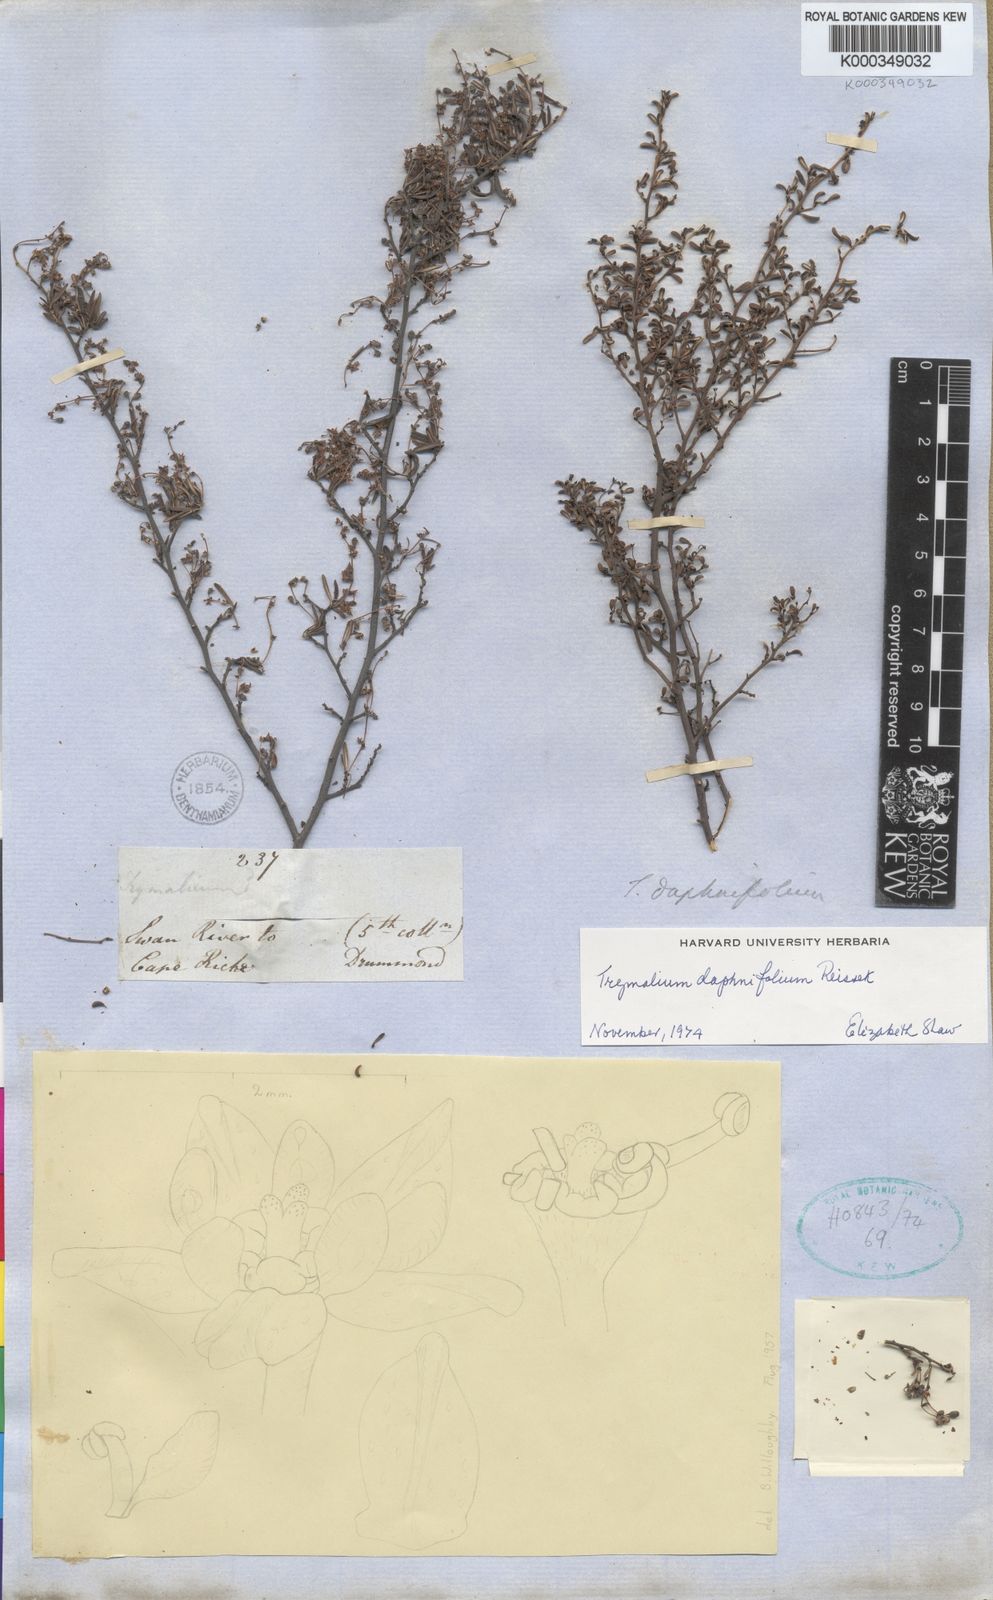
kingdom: Plantae
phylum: Tracheophyta
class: Magnoliopsida
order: Rosales
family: Rhamnaceae
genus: Trymalium
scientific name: Trymalium daphnifolium
